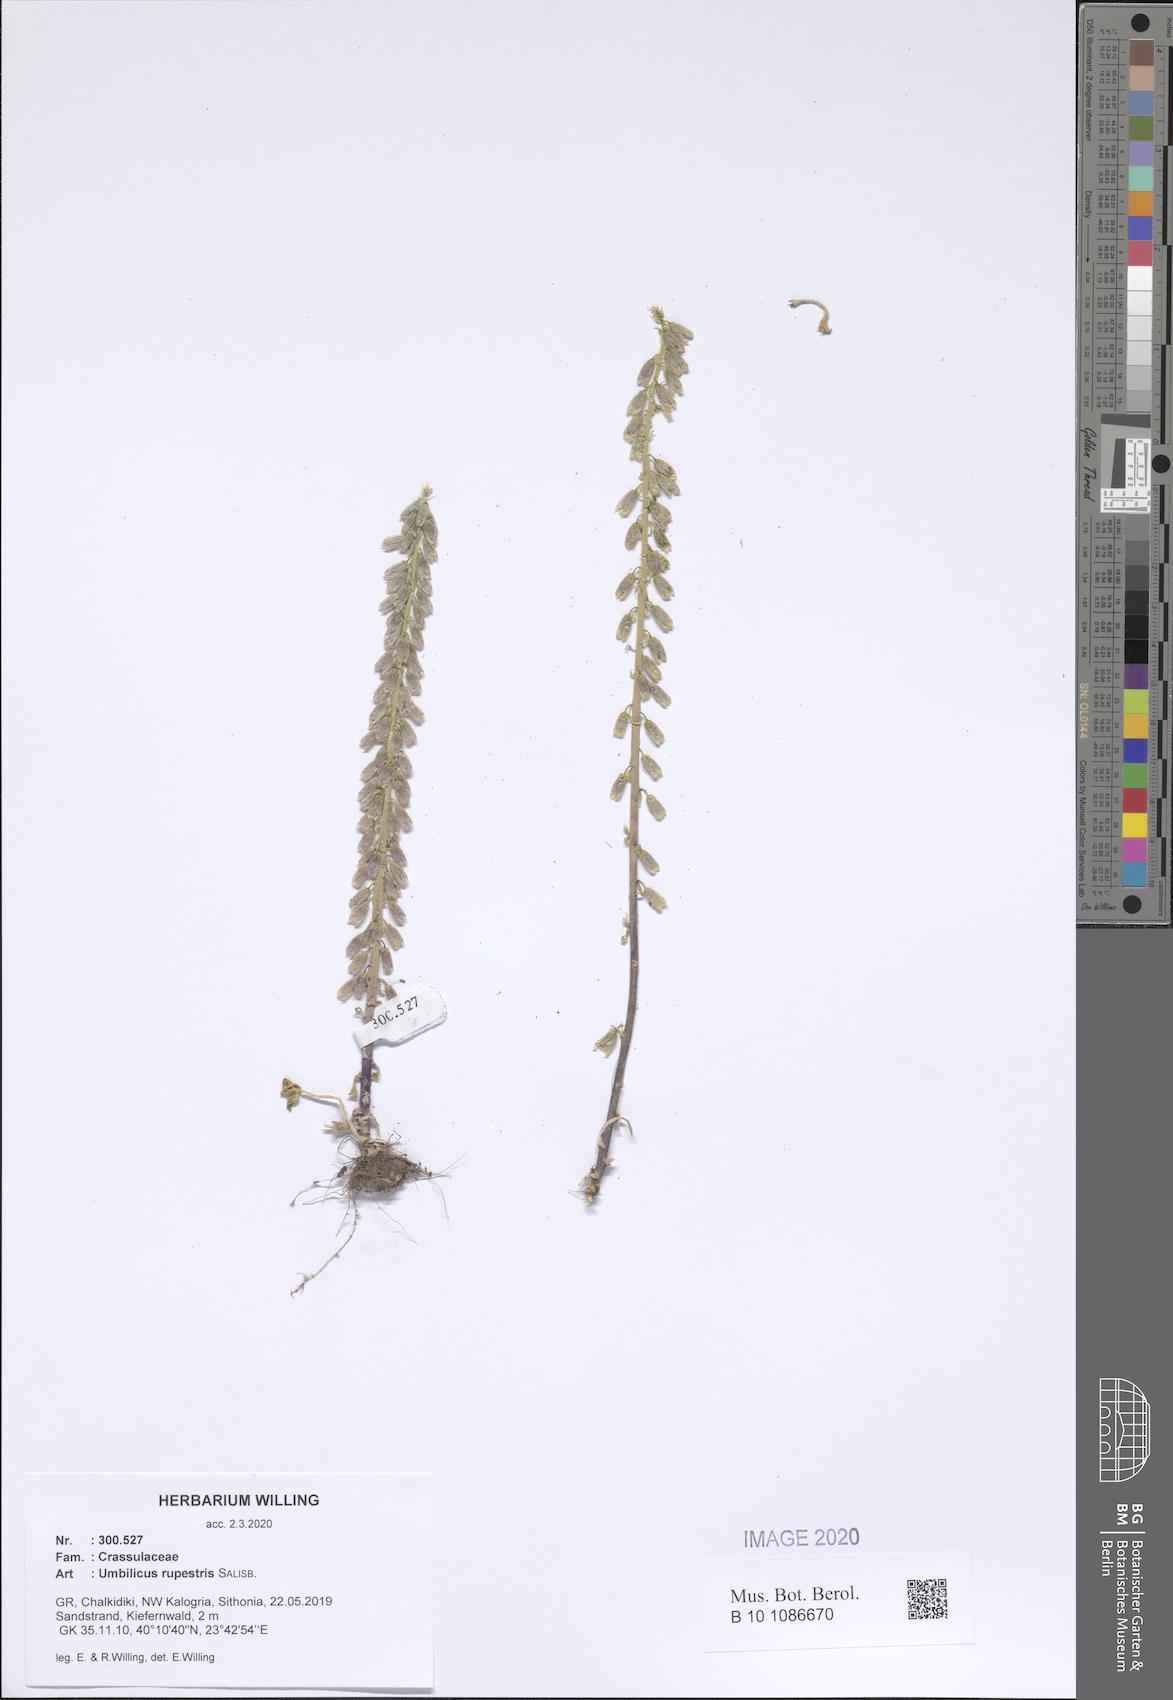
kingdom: Plantae
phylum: Tracheophyta
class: Magnoliopsida
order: Saxifragales
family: Crassulaceae
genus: Umbilicus
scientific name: Umbilicus rupestris
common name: Navelwort
